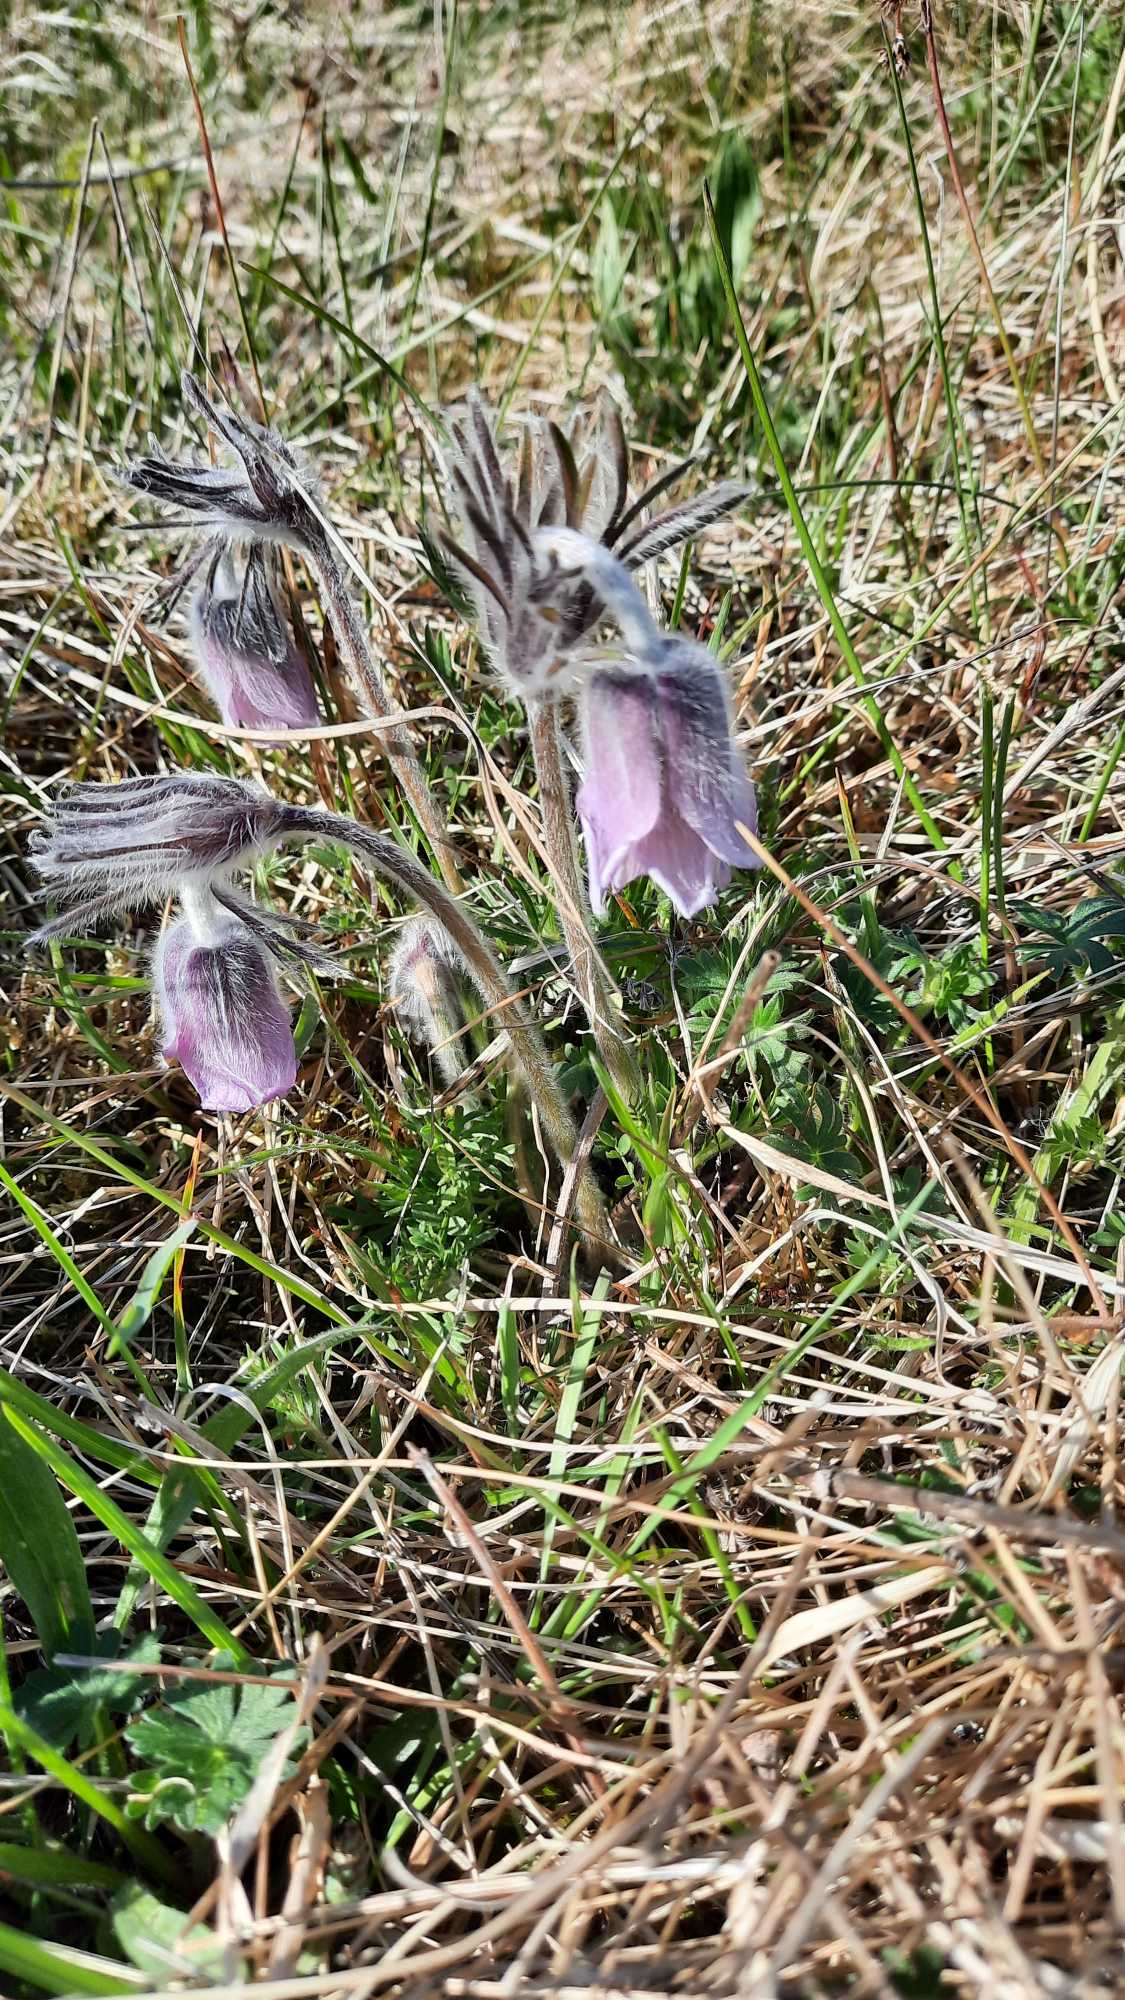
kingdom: Plantae
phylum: Tracheophyta
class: Magnoliopsida
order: Ranunculales
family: Ranunculaceae
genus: Pulsatilla
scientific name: Pulsatilla pratensis
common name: Nikkende kobjælde
